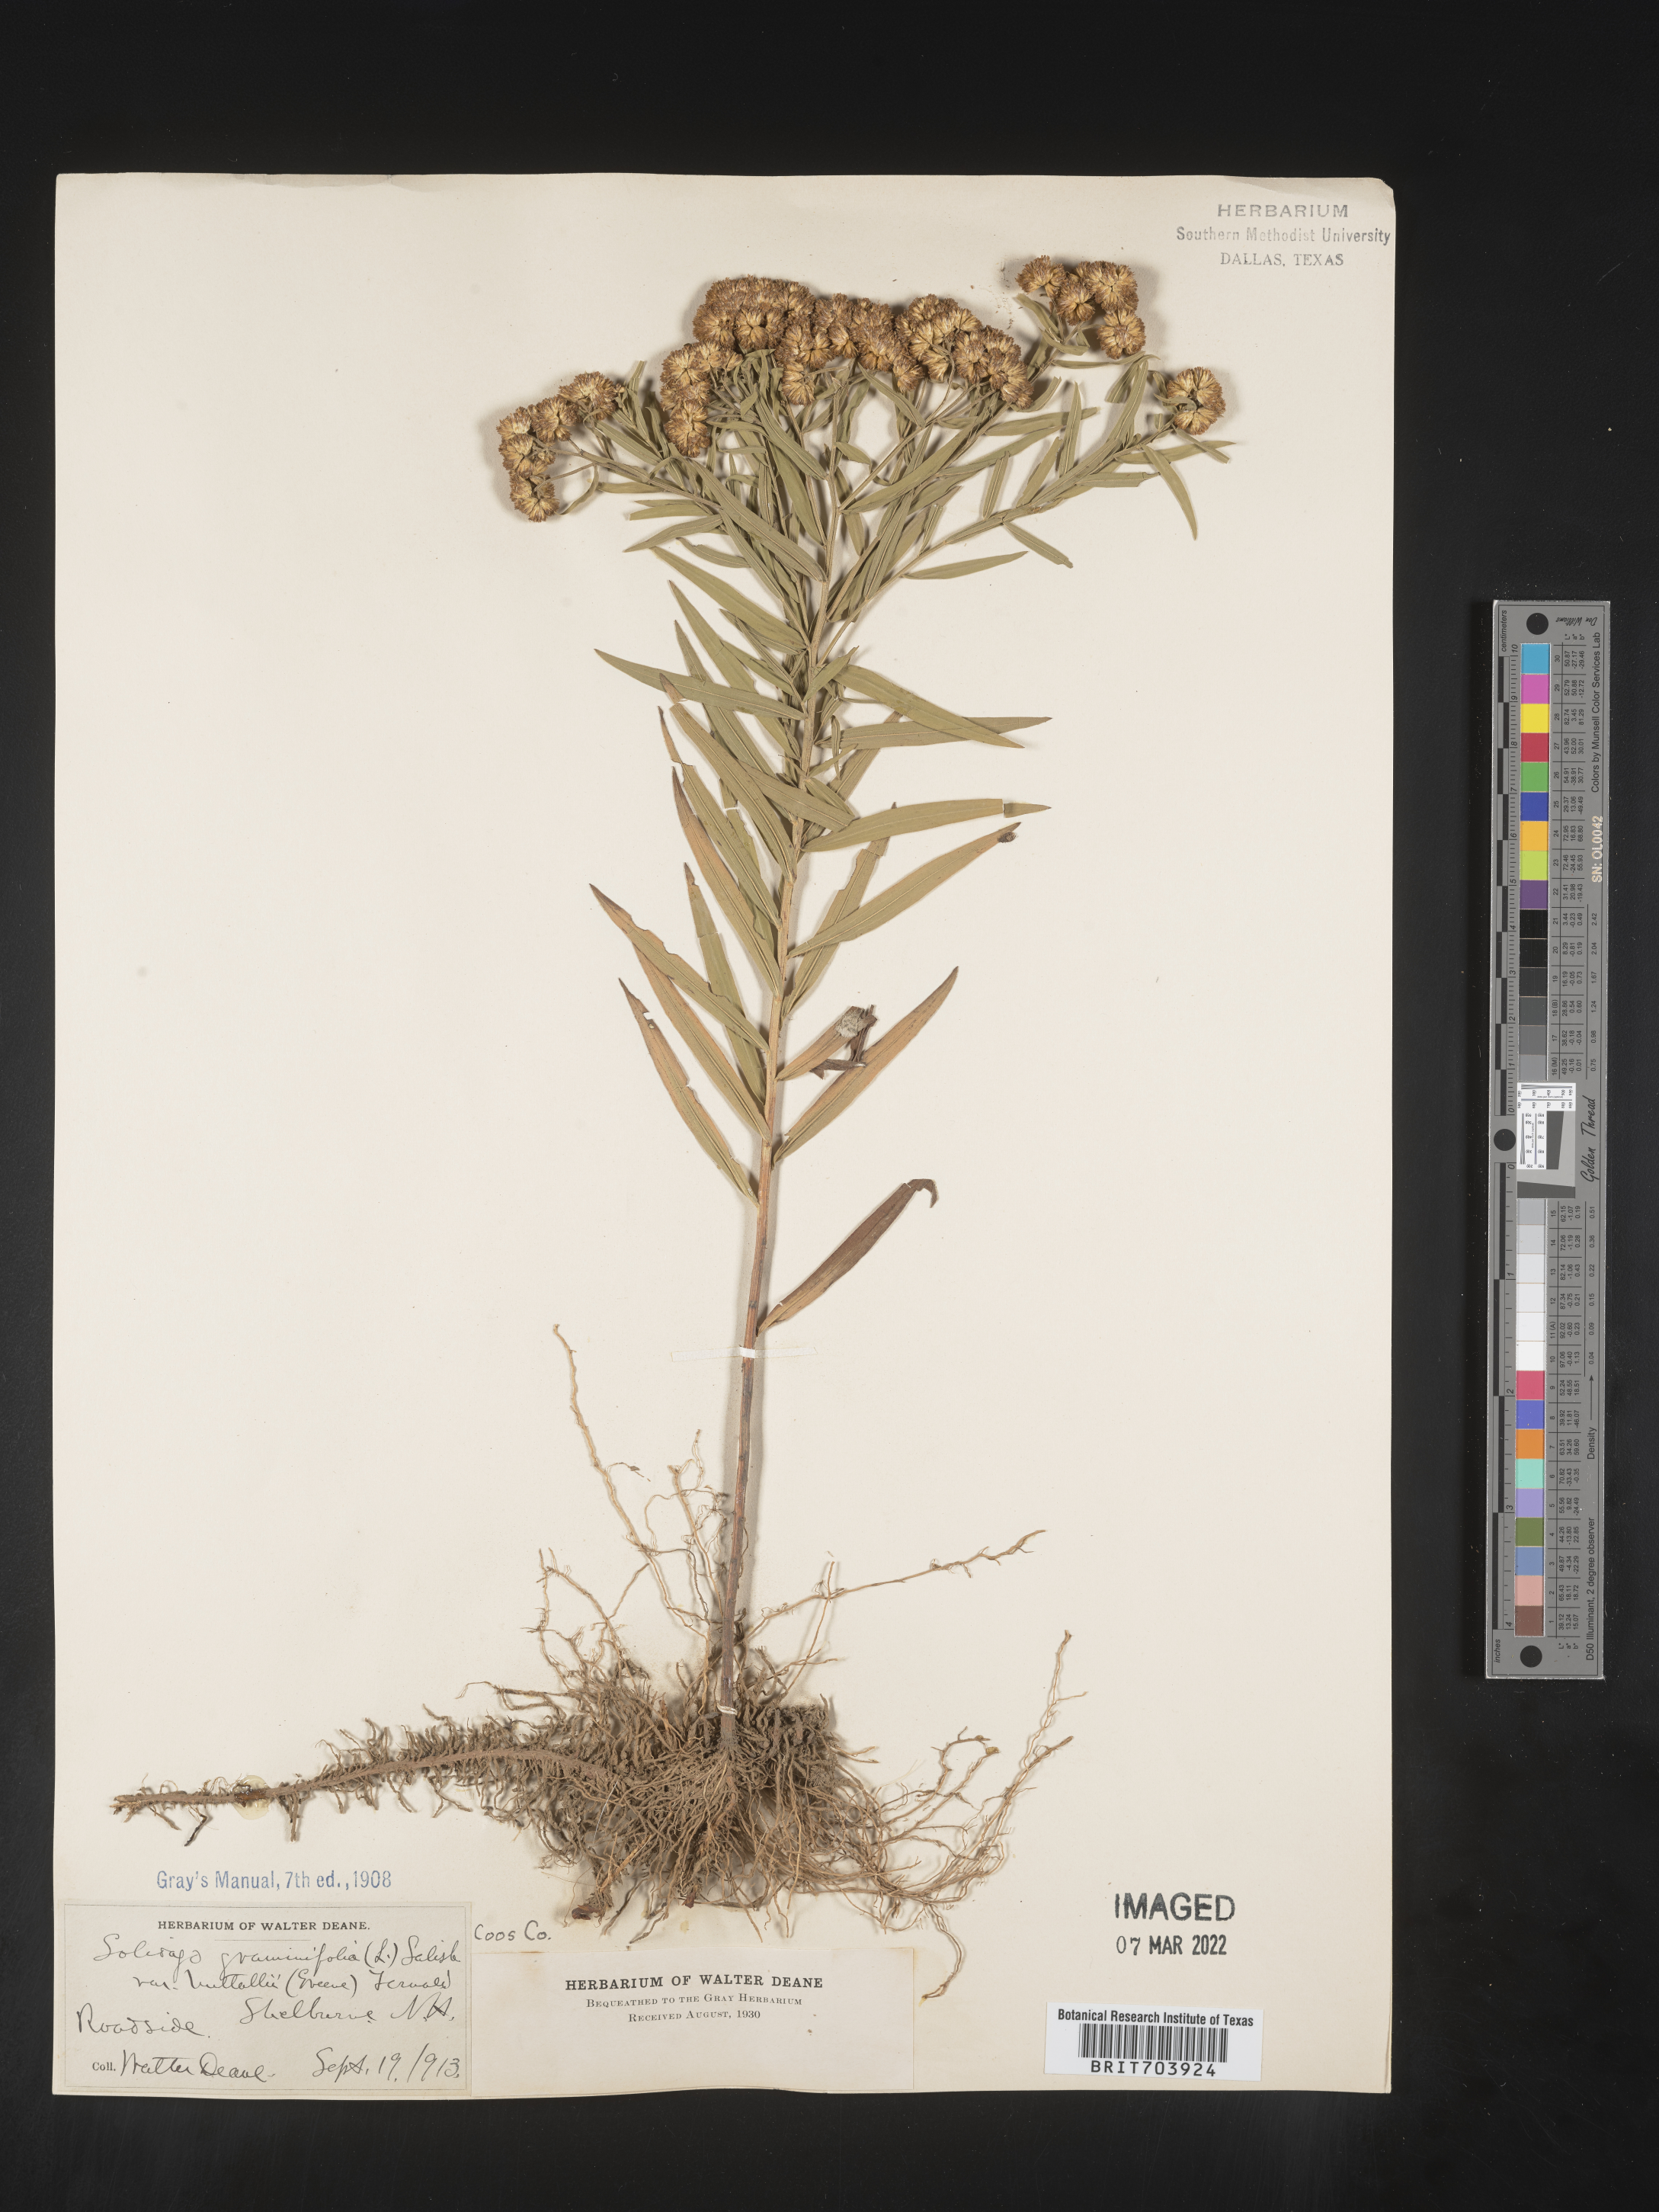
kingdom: Plantae
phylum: Tracheophyta
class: Magnoliopsida
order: Asterales
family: Asteraceae
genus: Euthamia
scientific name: Euthamia graminifolia
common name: Common goldentop
